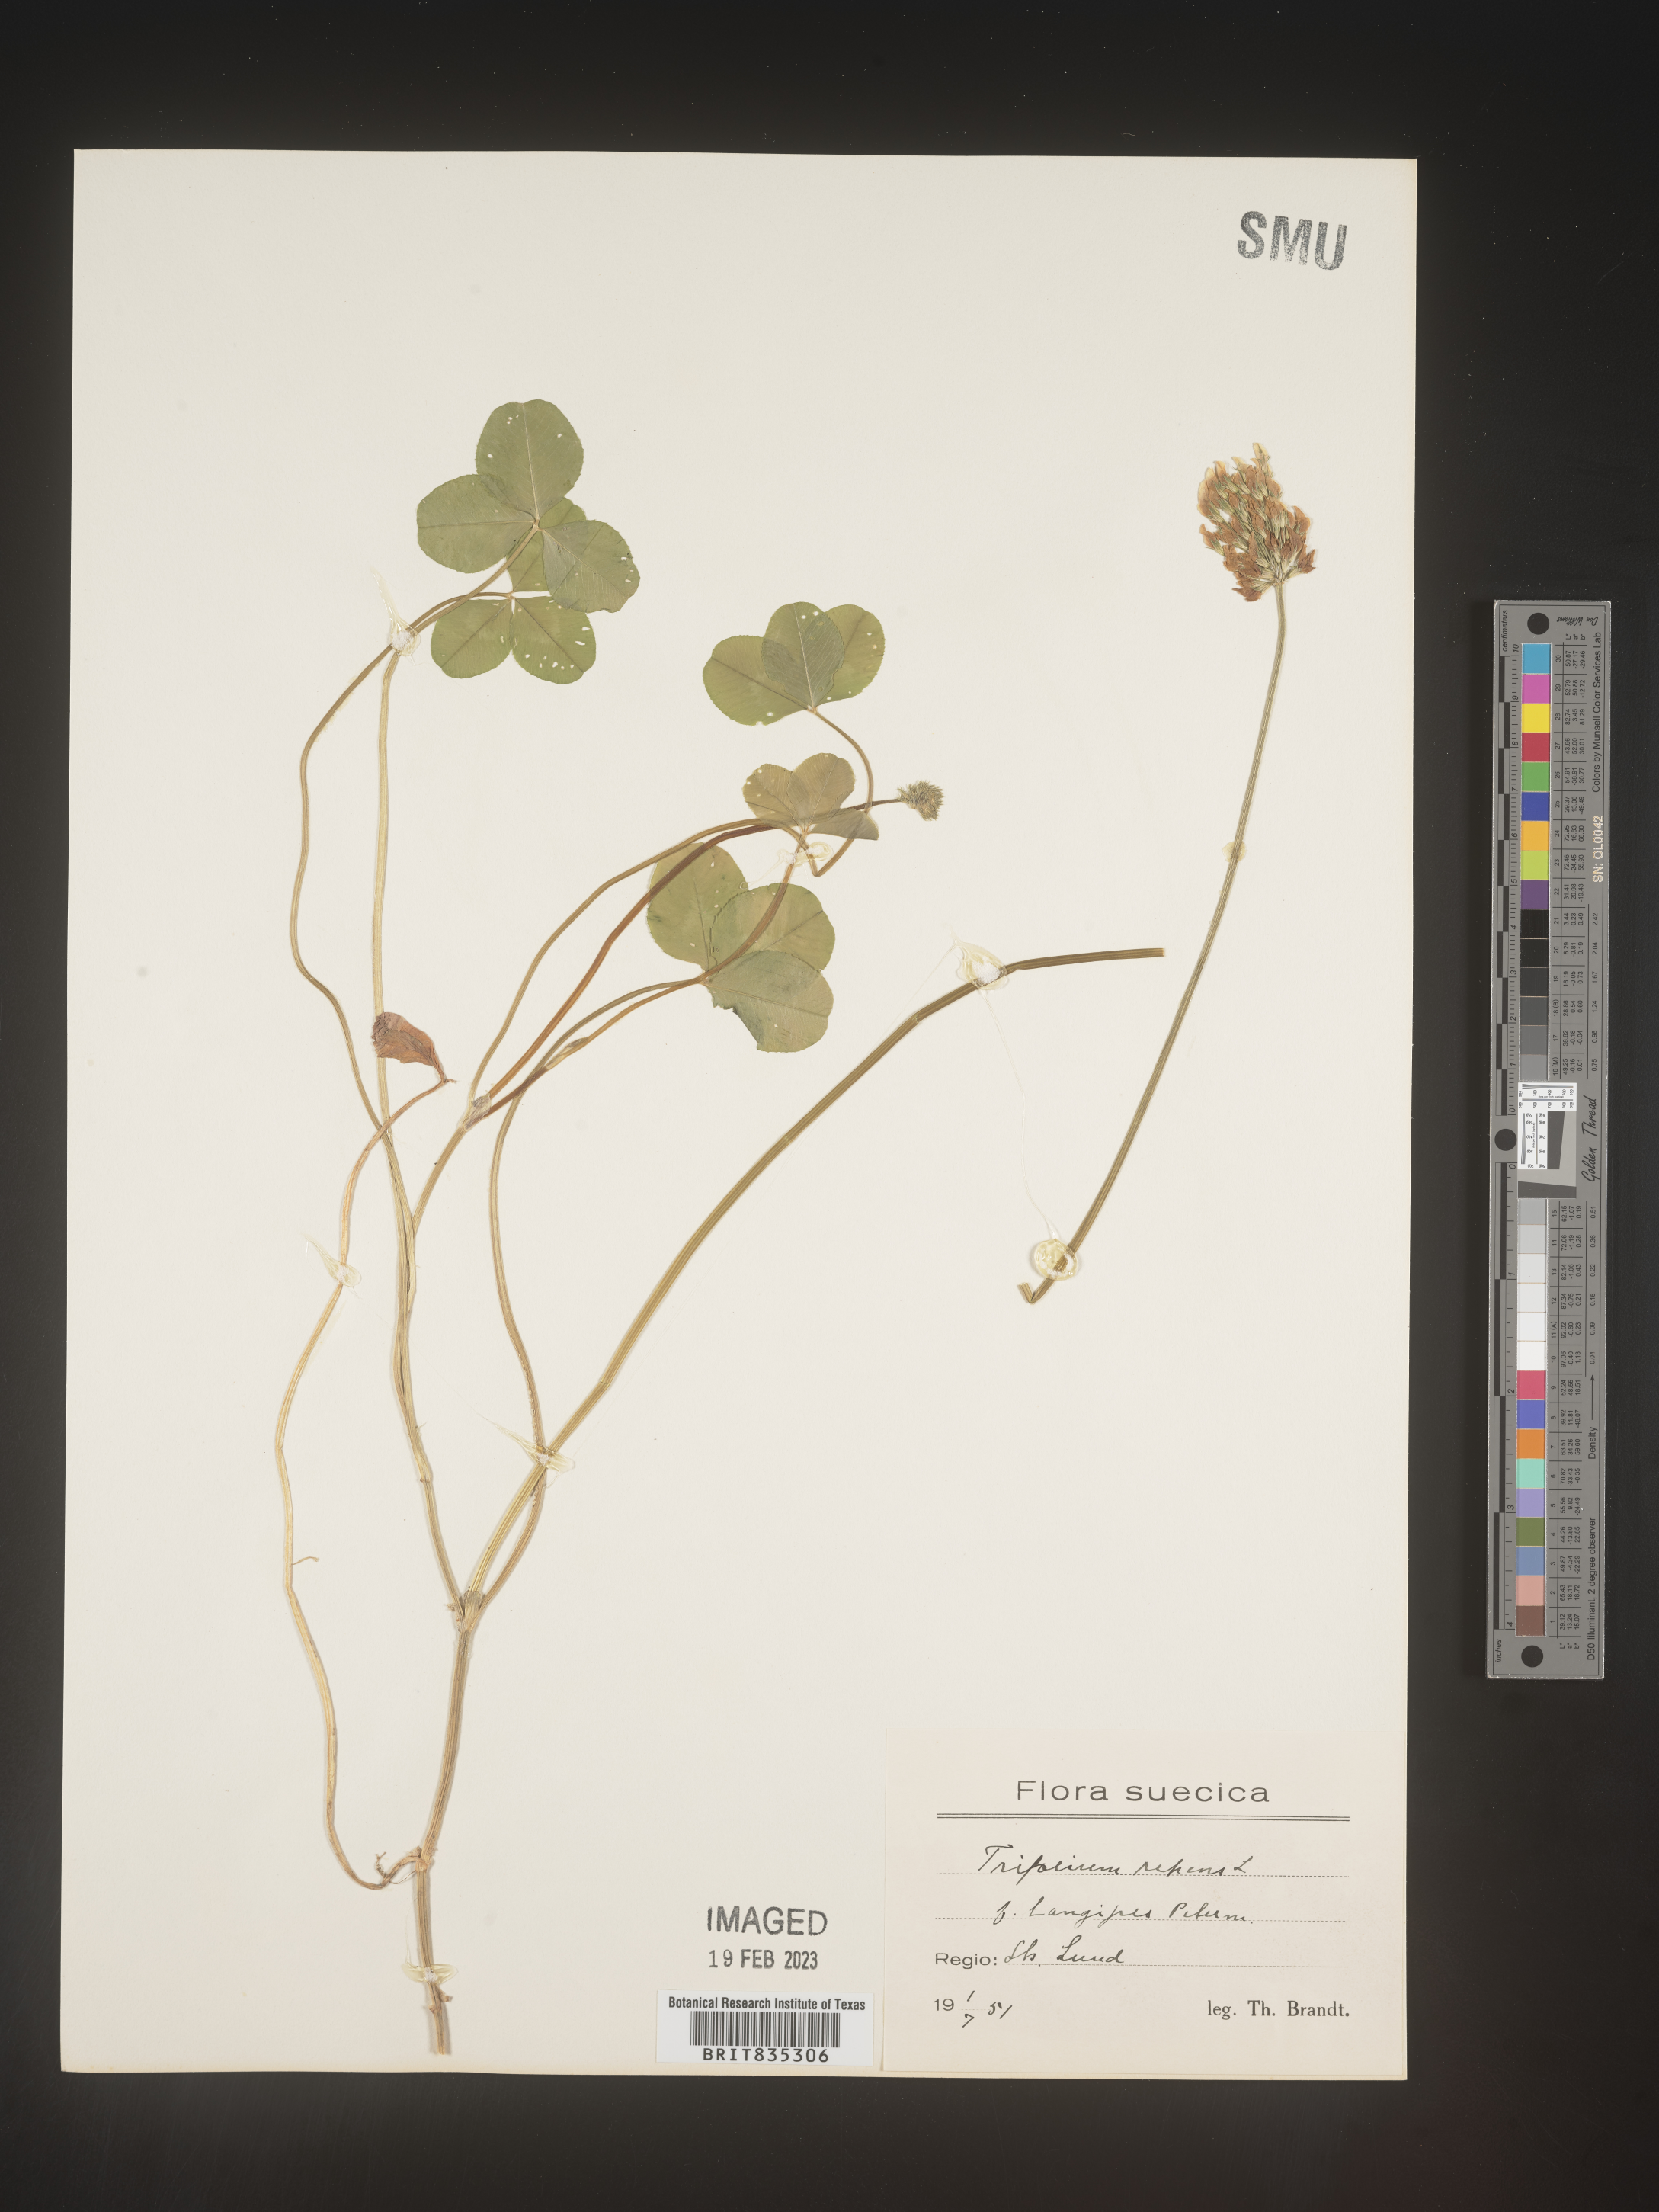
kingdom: Plantae
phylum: Tracheophyta
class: Magnoliopsida
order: Fabales
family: Fabaceae
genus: Trifolium
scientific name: Trifolium
